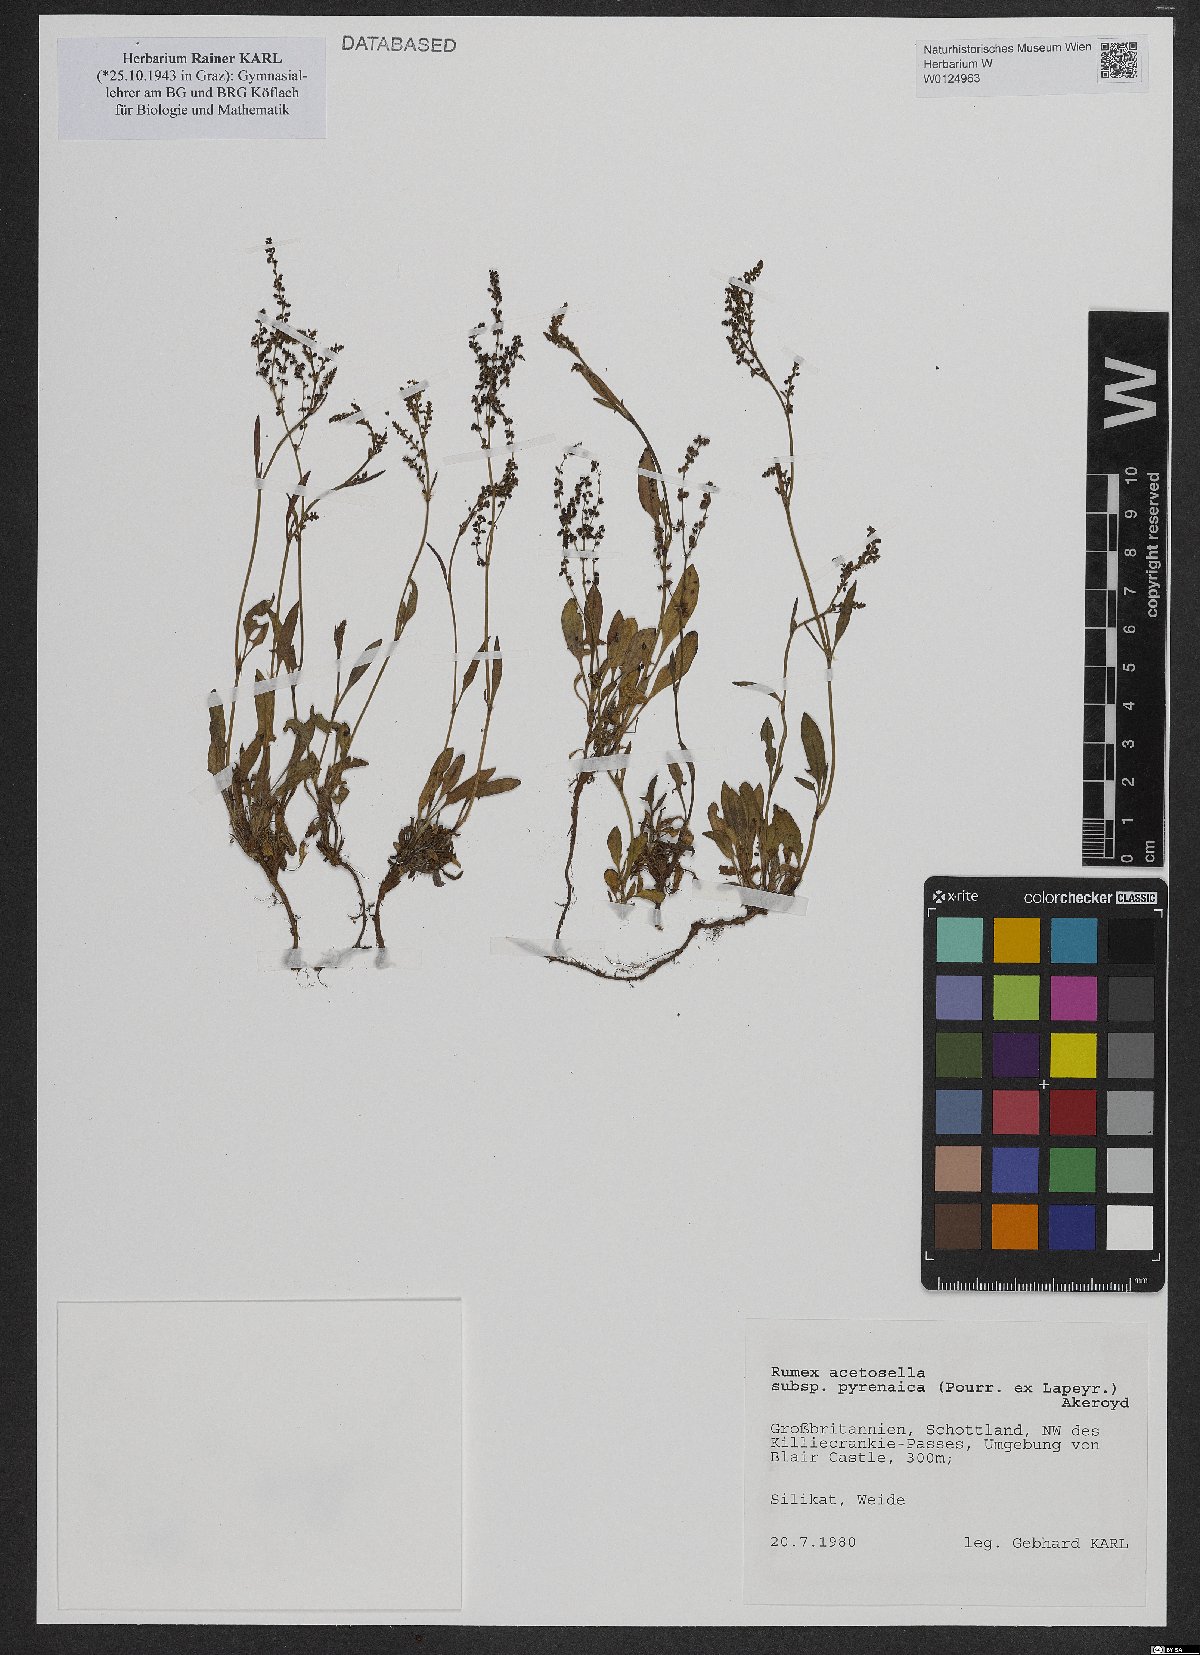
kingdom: Plantae
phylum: Tracheophyta
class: Magnoliopsida
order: Caryophyllales
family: Polygonaceae
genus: Rumex
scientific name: Rumex acetosella
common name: Common sheep sorrel
